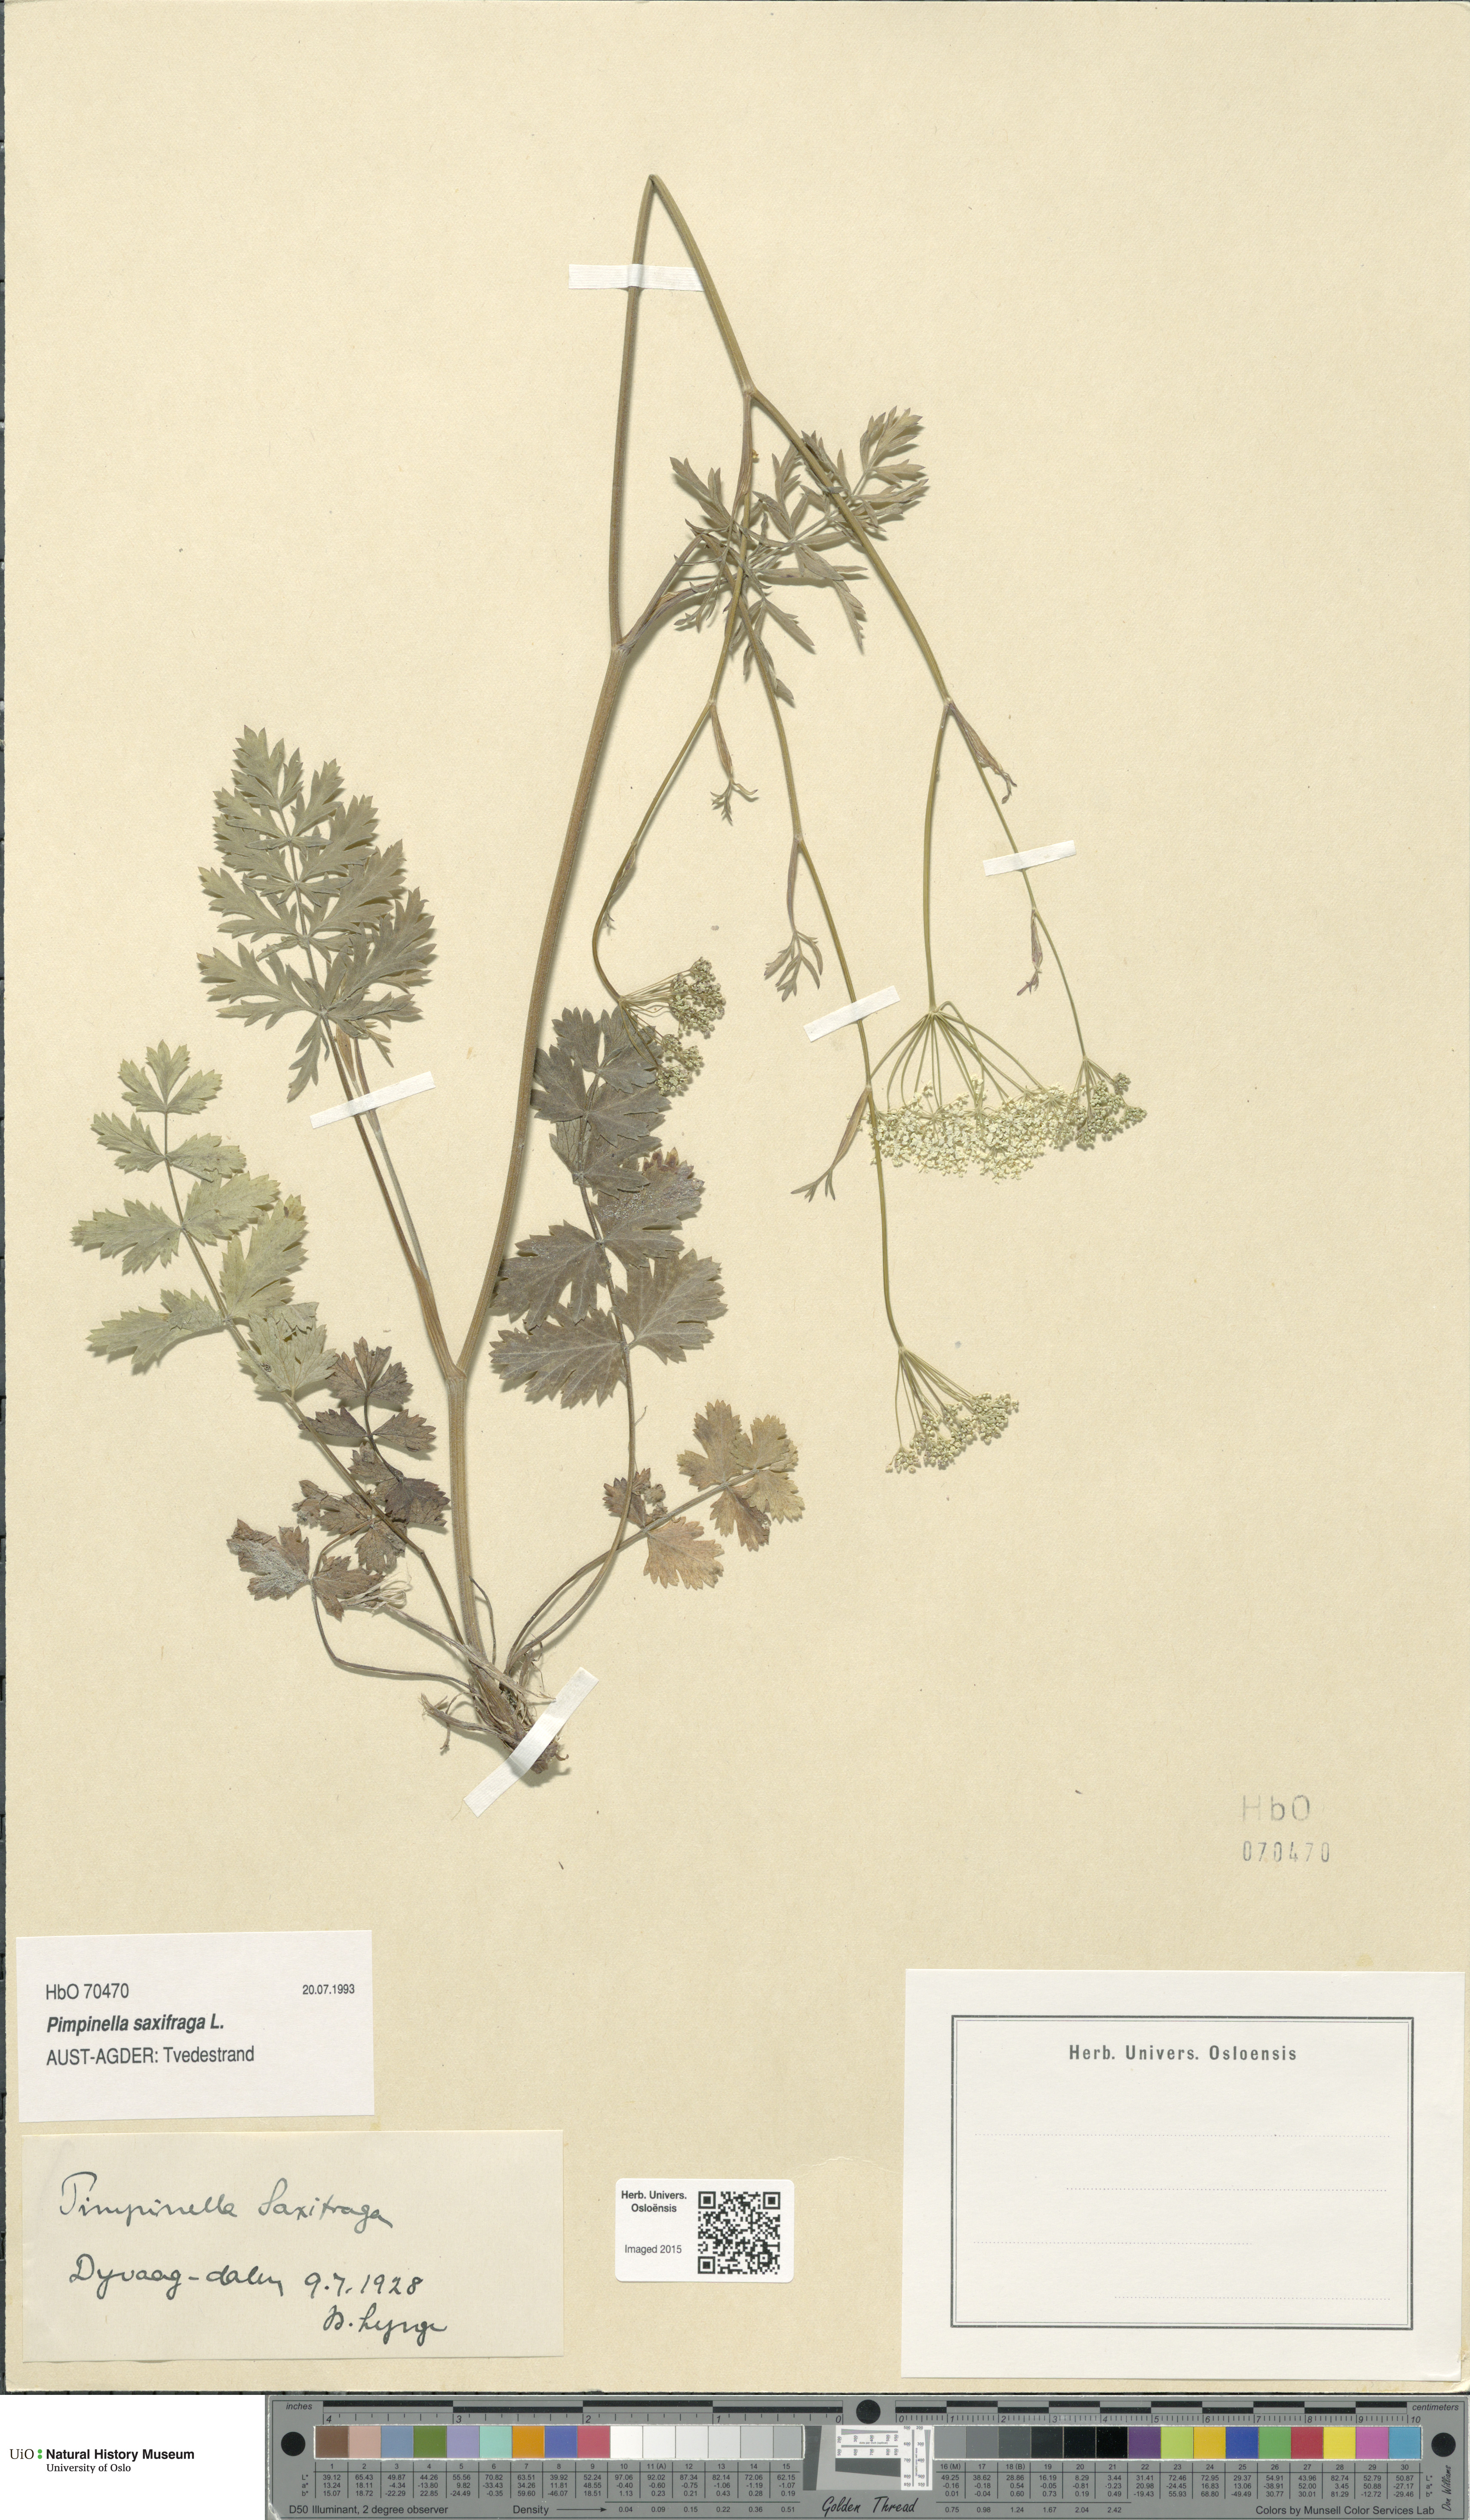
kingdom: Plantae
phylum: Tracheophyta
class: Magnoliopsida
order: Apiales
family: Apiaceae
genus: Pimpinella
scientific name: Pimpinella saxifraga
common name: Burnet-saxifrage
